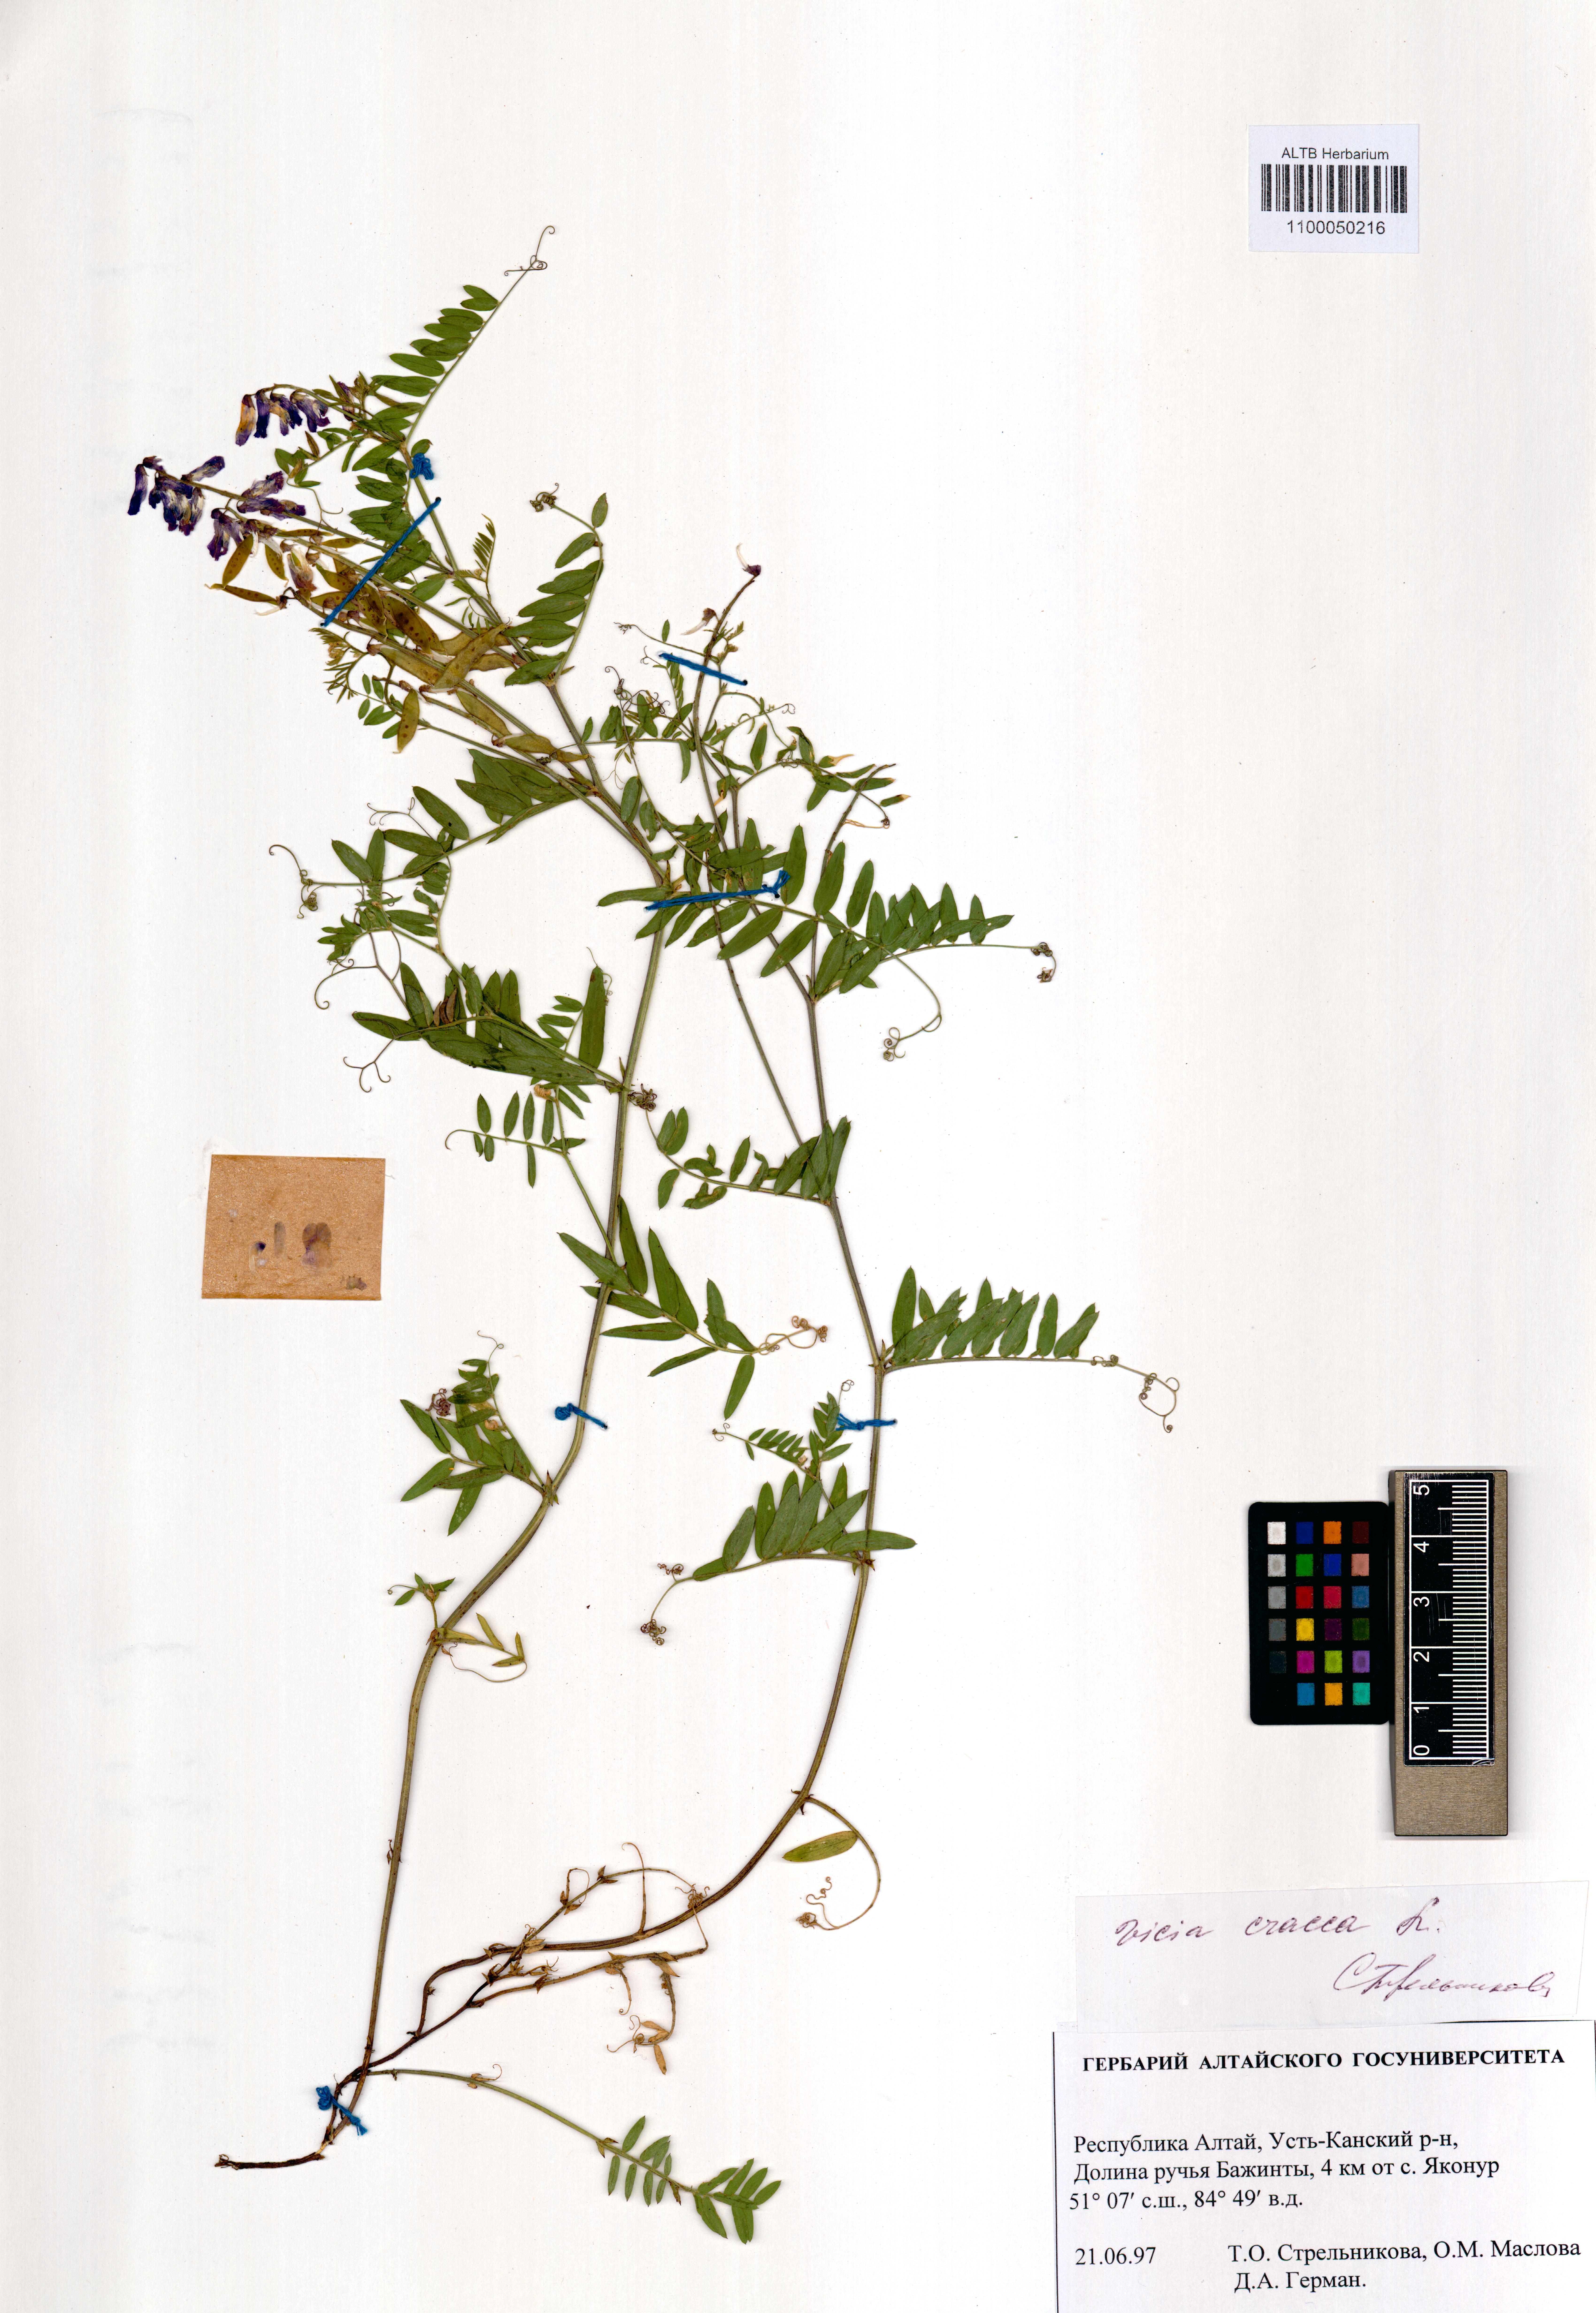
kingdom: Plantae
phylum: Tracheophyta
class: Magnoliopsida
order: Fabales
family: Fabaceae
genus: Vicia
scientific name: Vicia cracca
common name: Bird vetch
